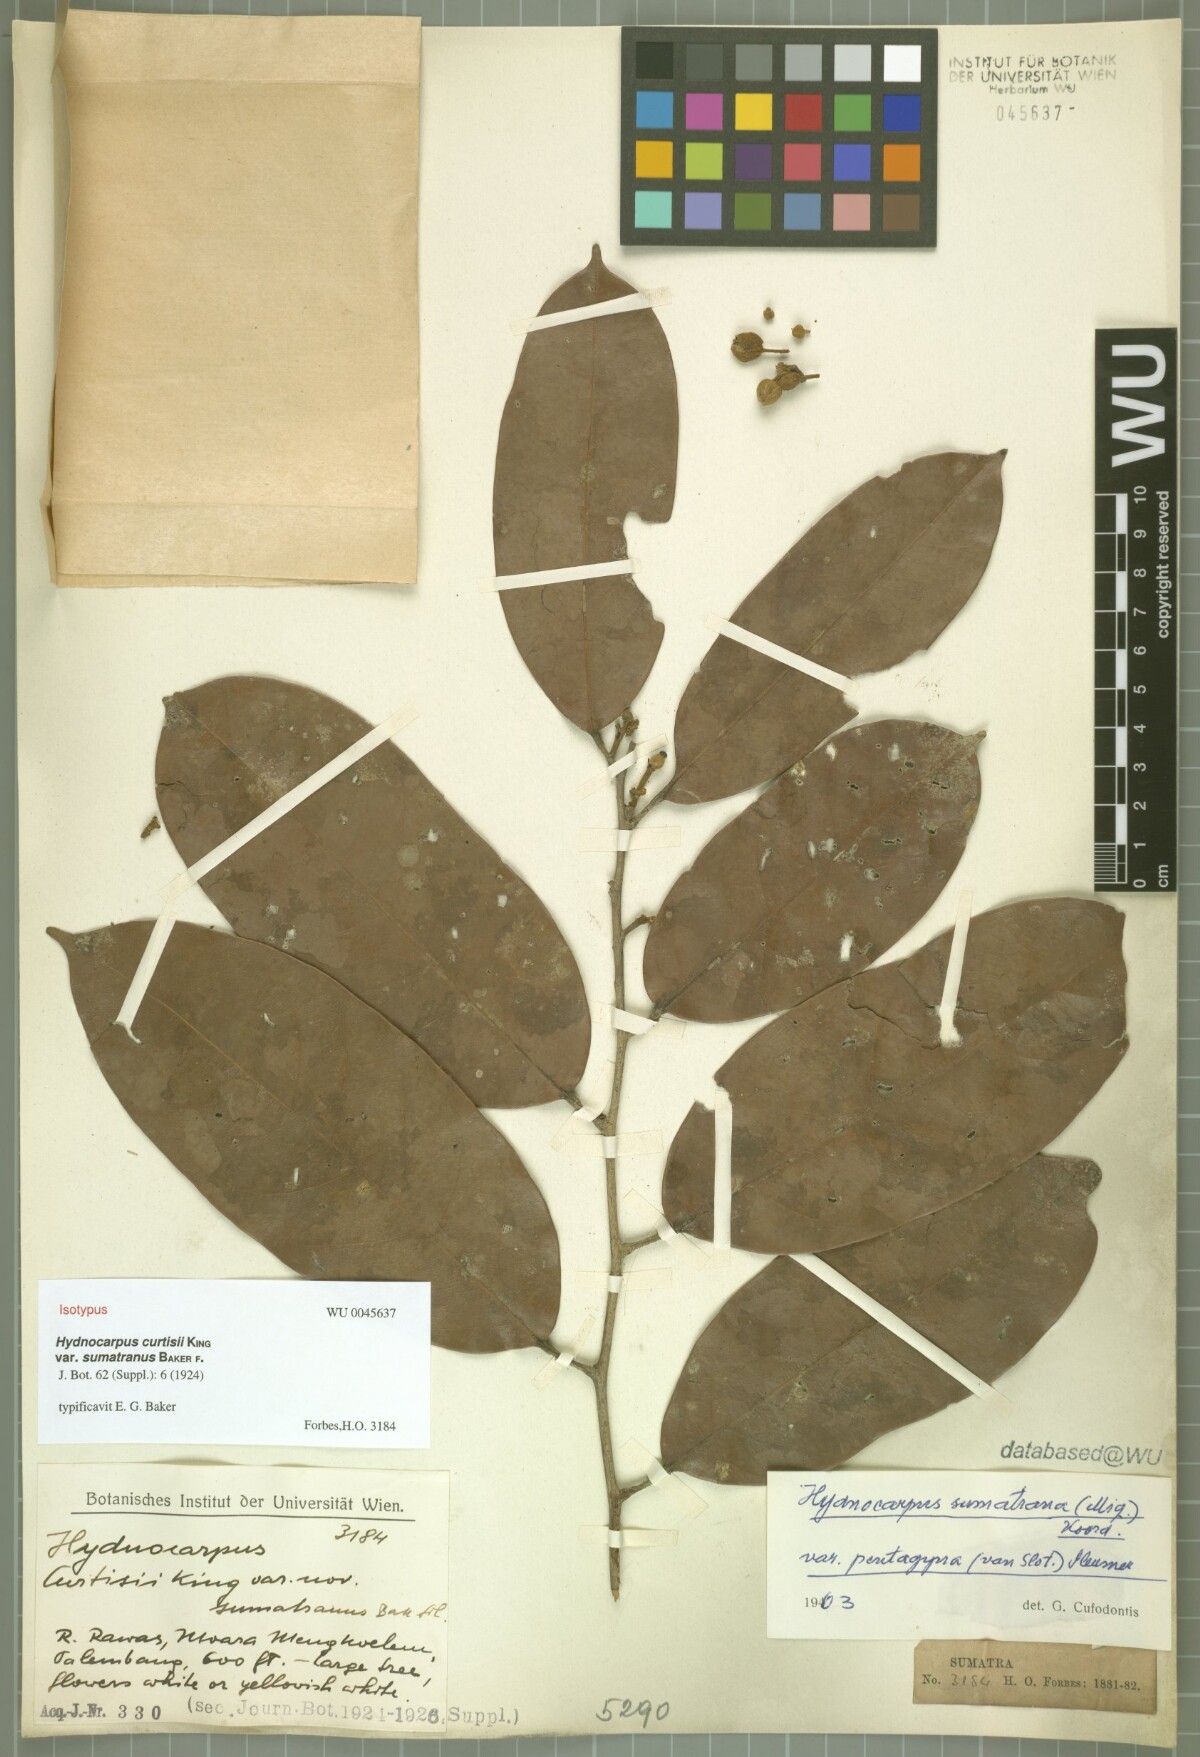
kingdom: Plantae
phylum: Tracheophyta
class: Magnoliopsida
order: Malpighiales
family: Achariaceae
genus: Hydnocarpus
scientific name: Hydnocarpus sumatranus
